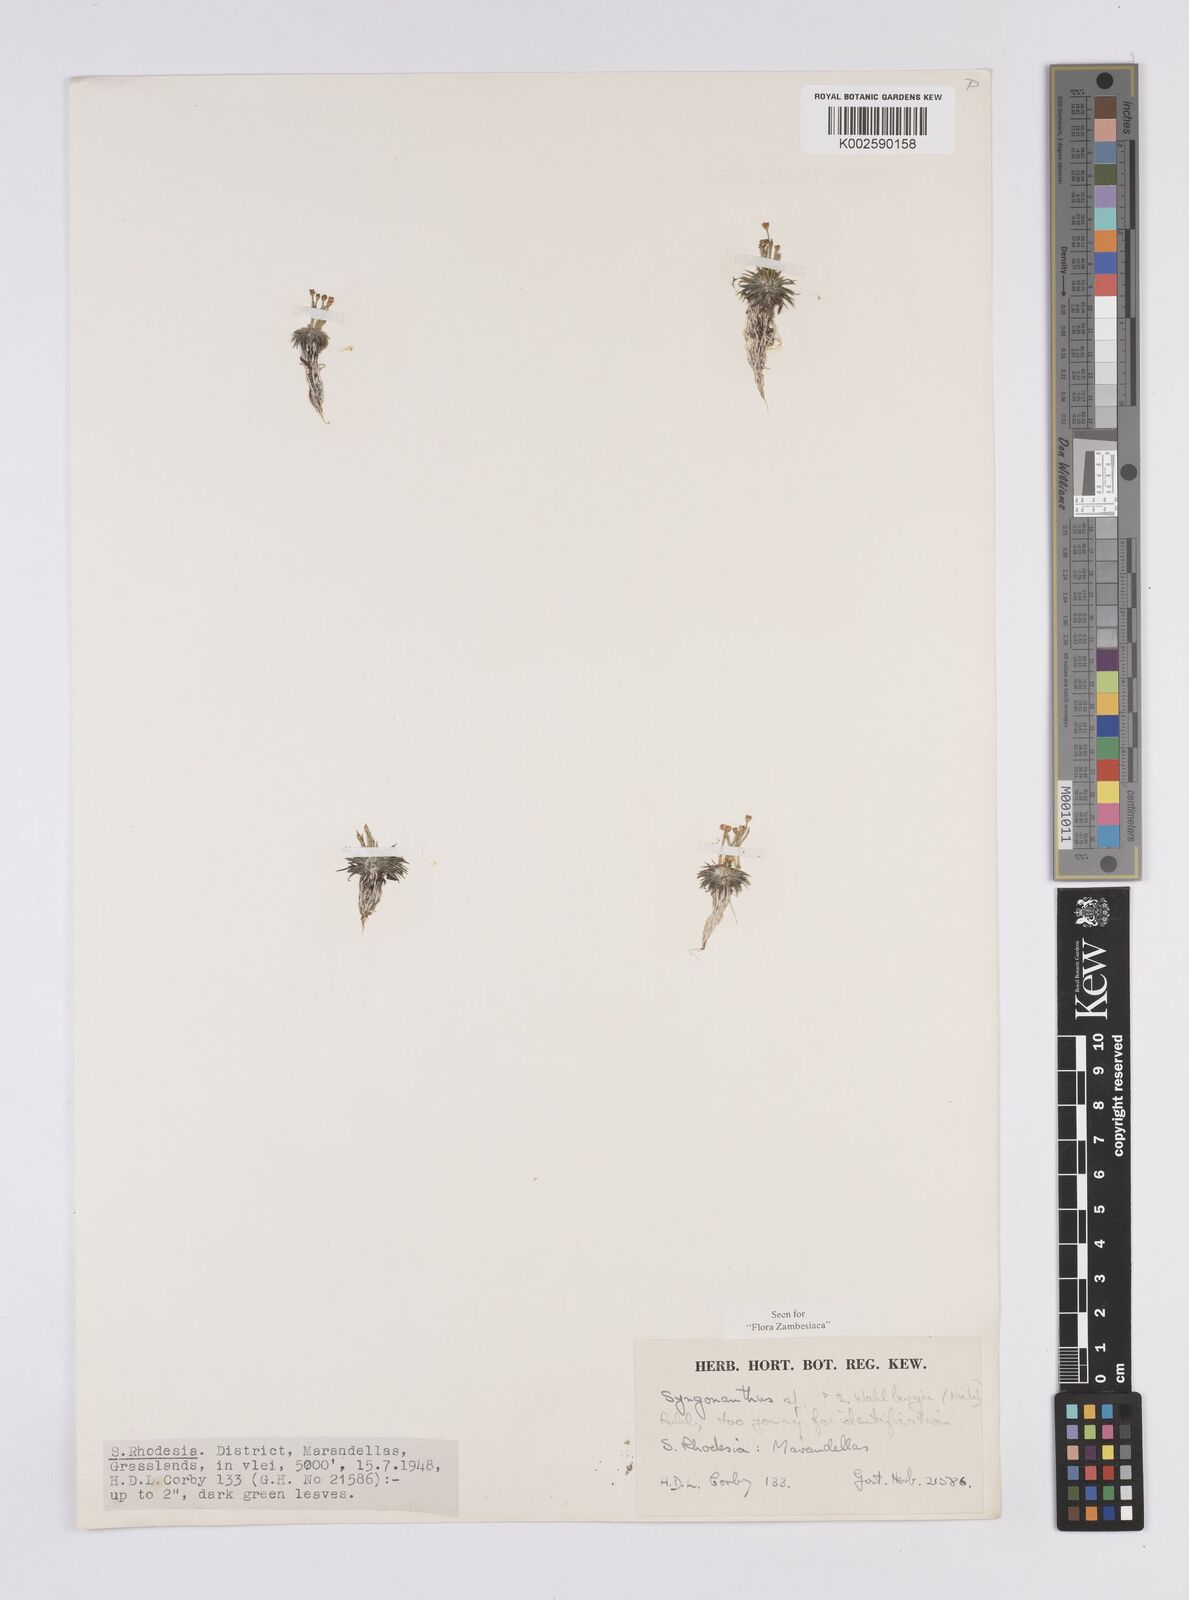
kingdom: Plantae
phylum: Tracheophyta
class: Liliopsida
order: Poales
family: Eriocaulaceae
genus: Syngonanthus
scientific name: Syngonanthus wahlbergii
